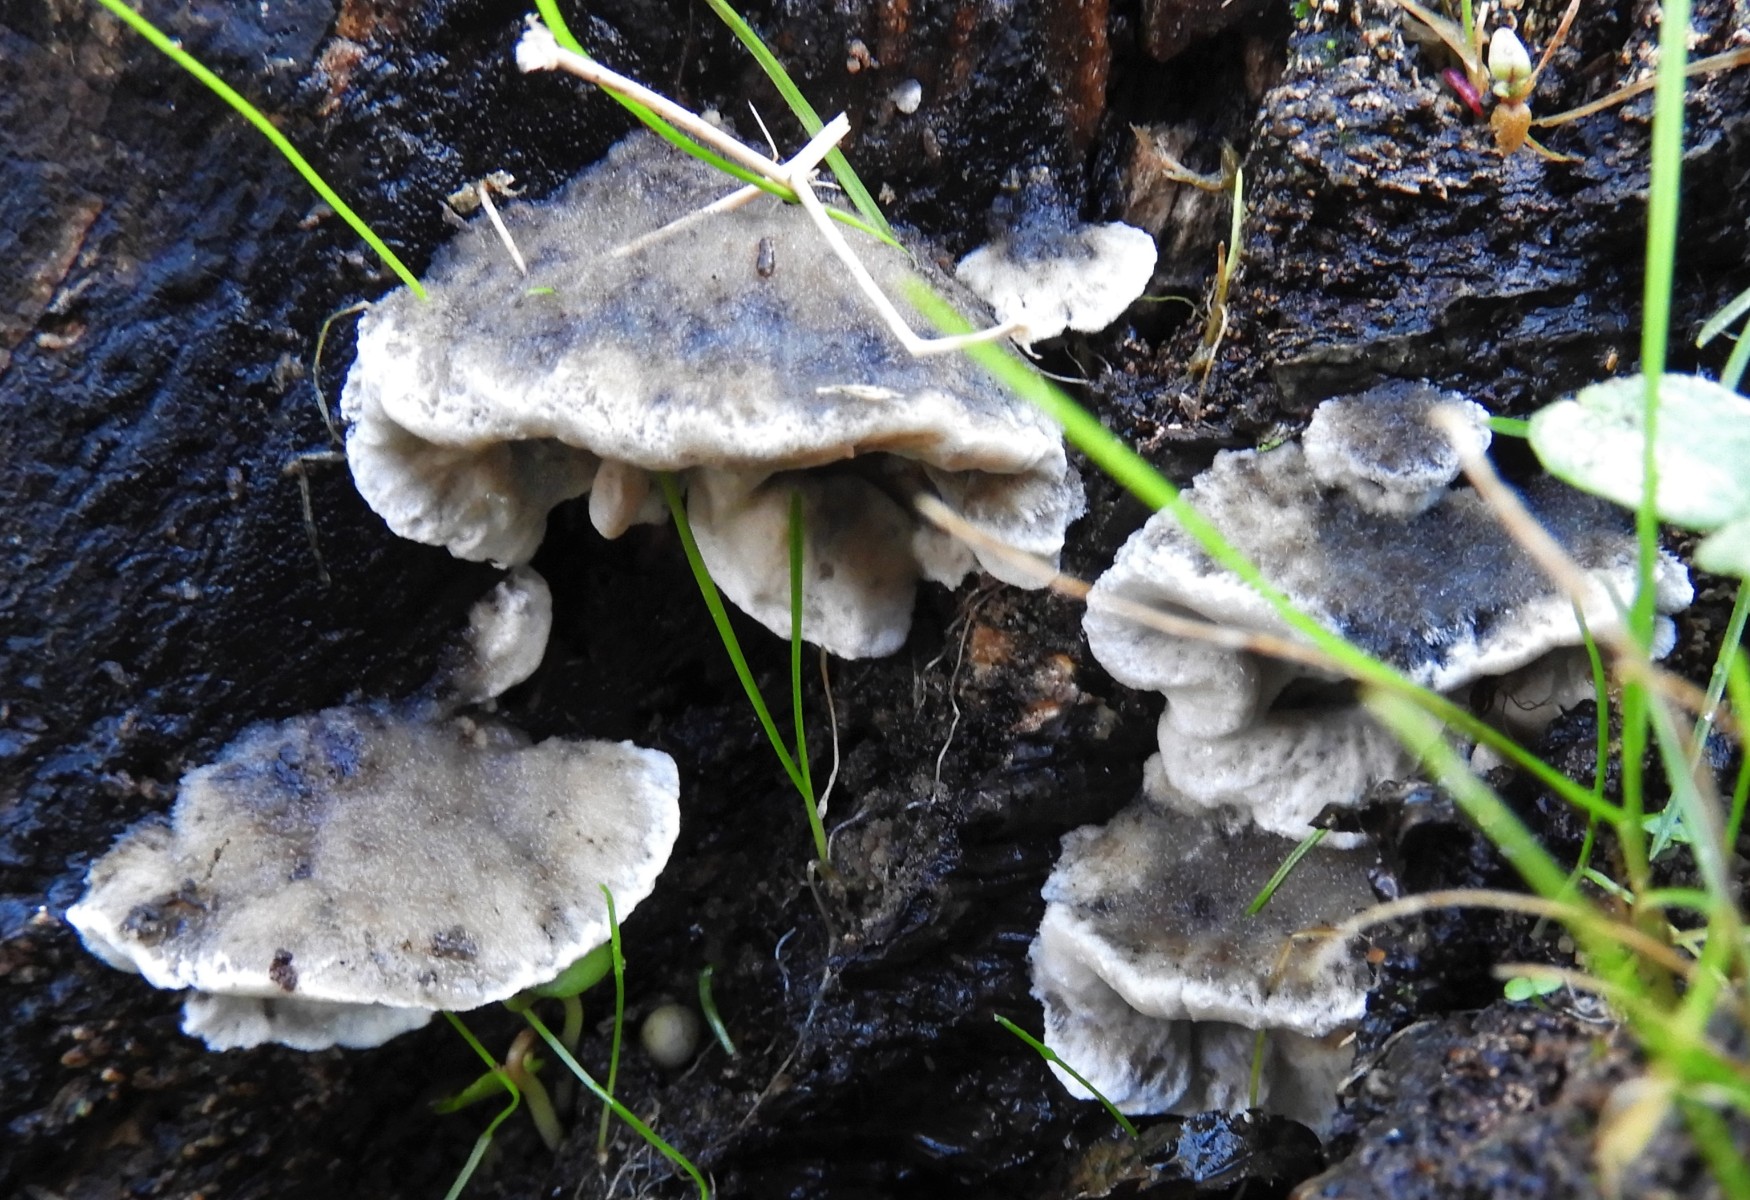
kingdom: Fungi
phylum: Basidiomycota
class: Agaricomycetes
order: Polyporales
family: Polyporaceae
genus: Cyanosporus
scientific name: Cyanosporus caesius
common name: blålig kødporesvamp
